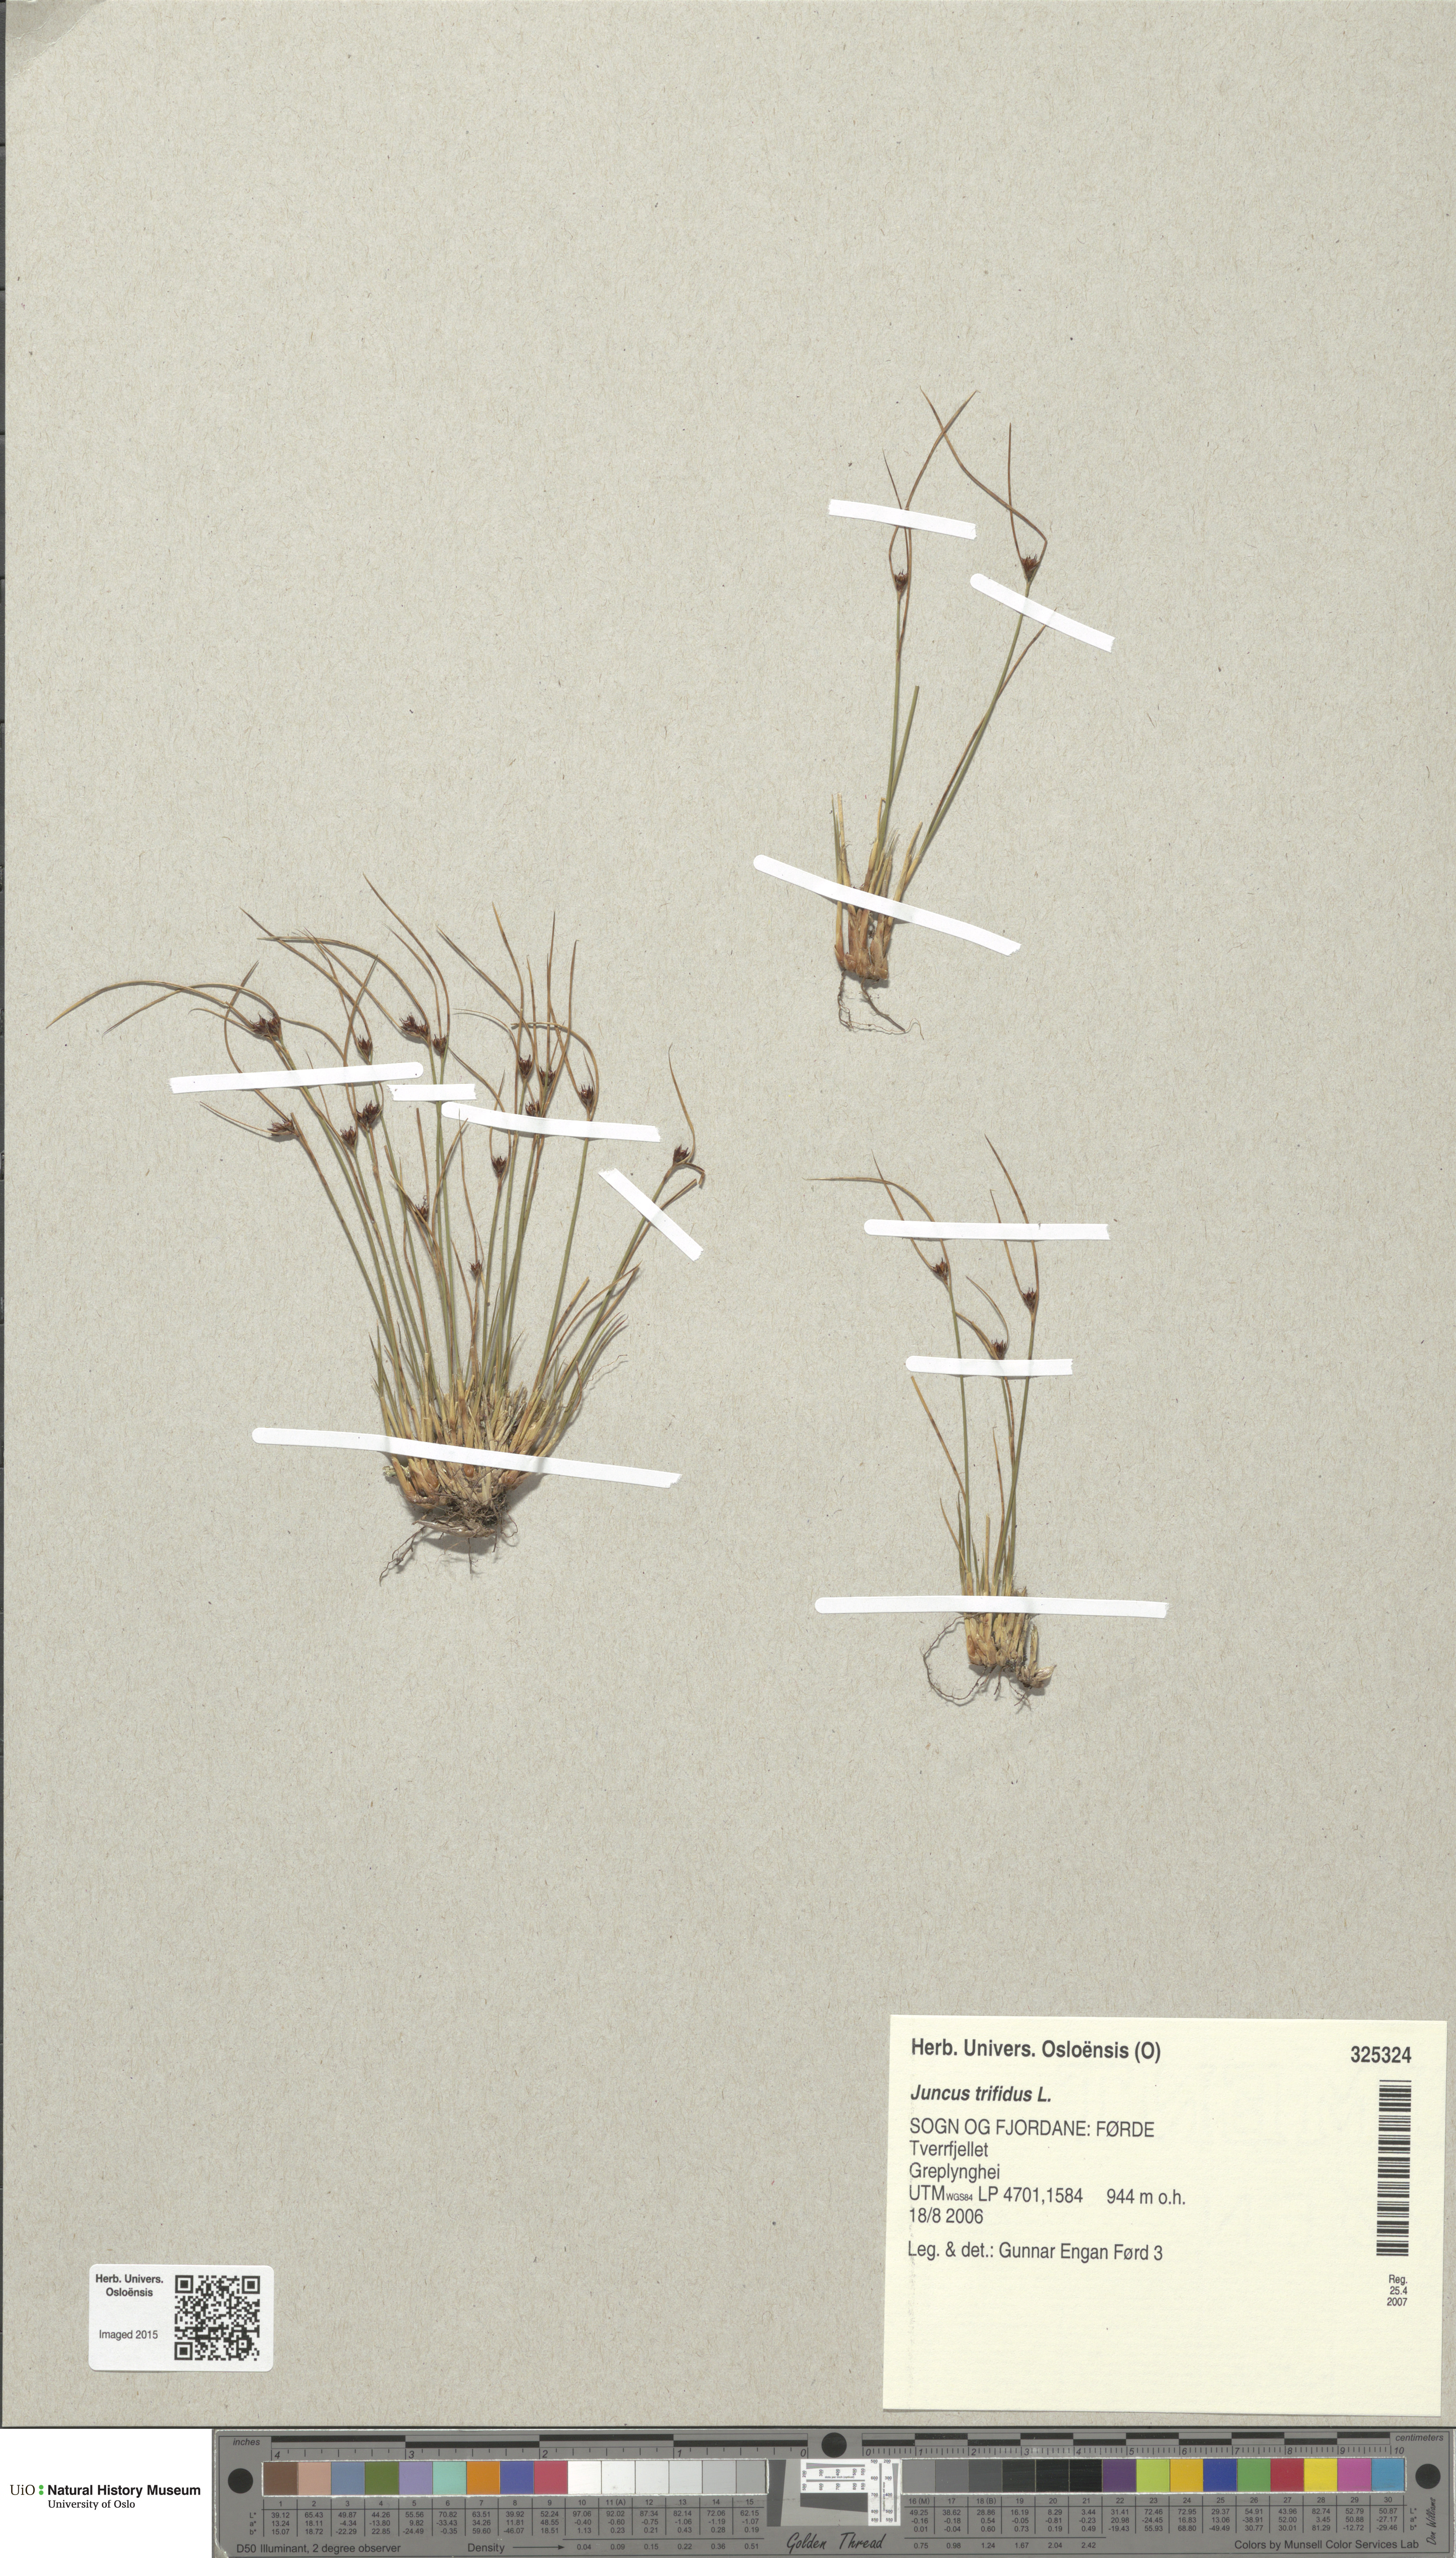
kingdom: Plantae
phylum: Tracheophyta
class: Liliopsida
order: Poales
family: Juncaceae
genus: Oreojuncus
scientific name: Oreojuncus trifidus
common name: Highland rush
